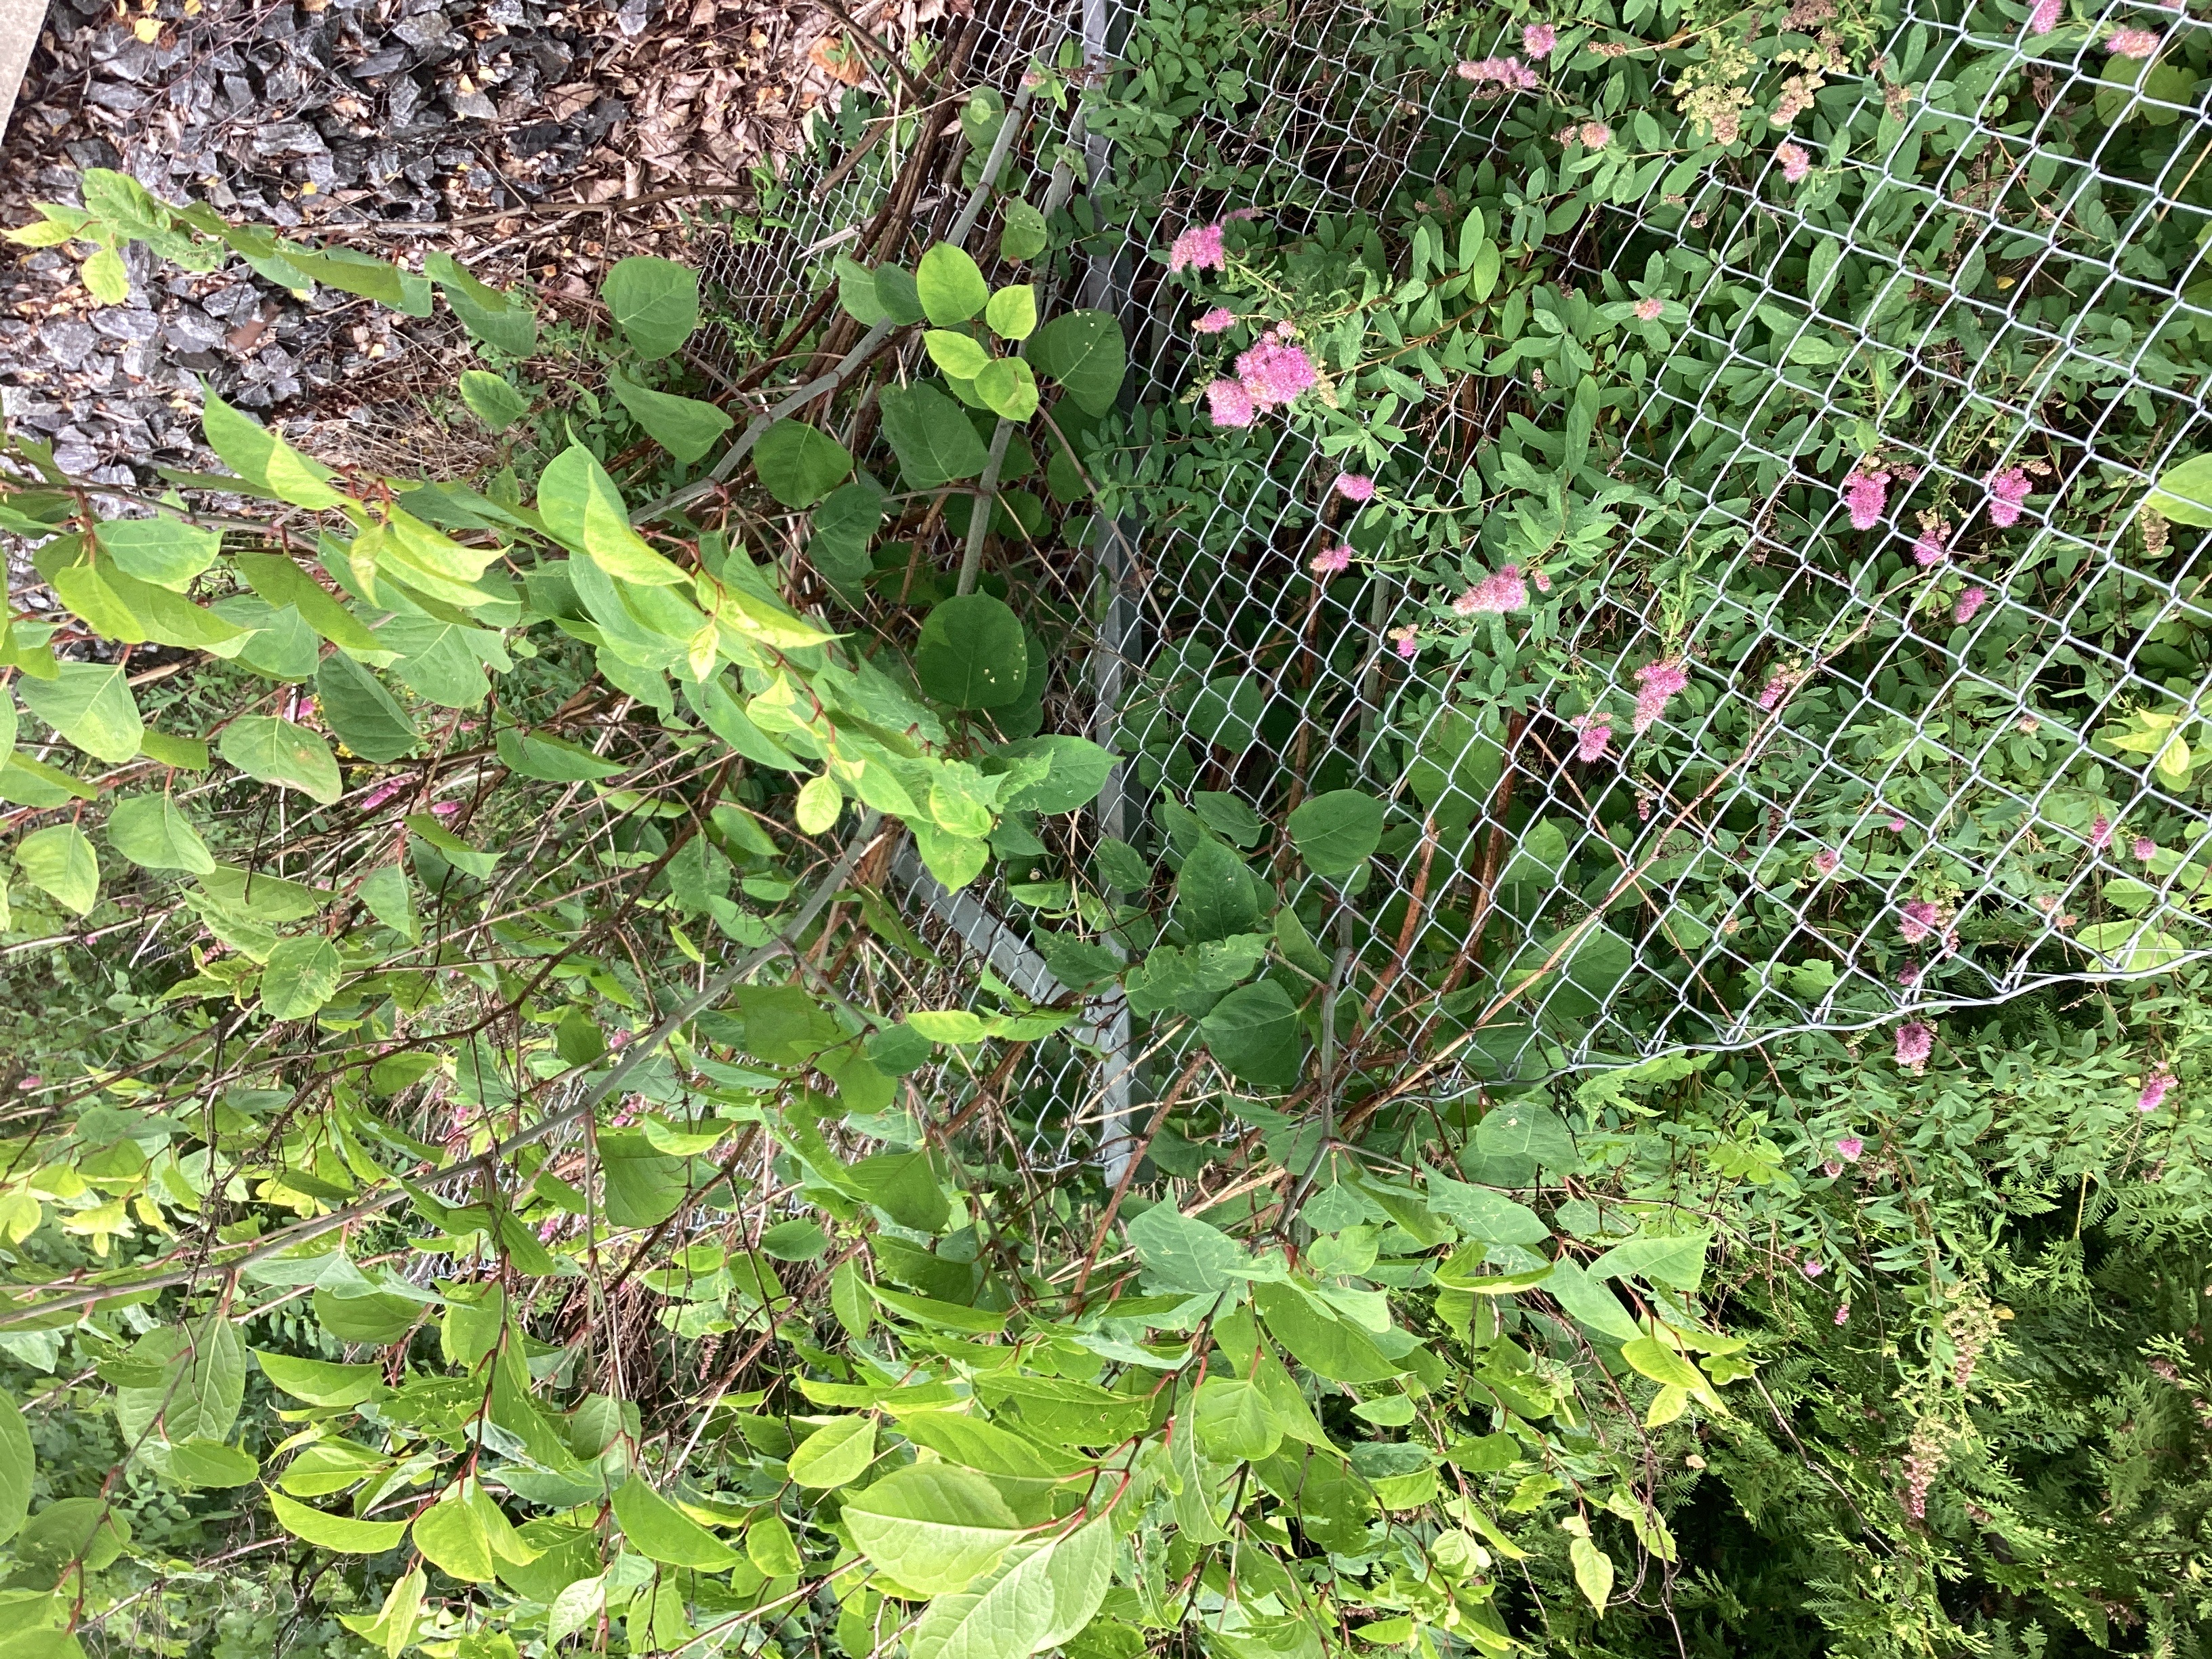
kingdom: Plantae
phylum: Tracheophyta
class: Magnoliopsida
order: Caryophyllales
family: Polygonaceae
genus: Reynoutria
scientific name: Reynoutria bohemica
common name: hybridslirekne
